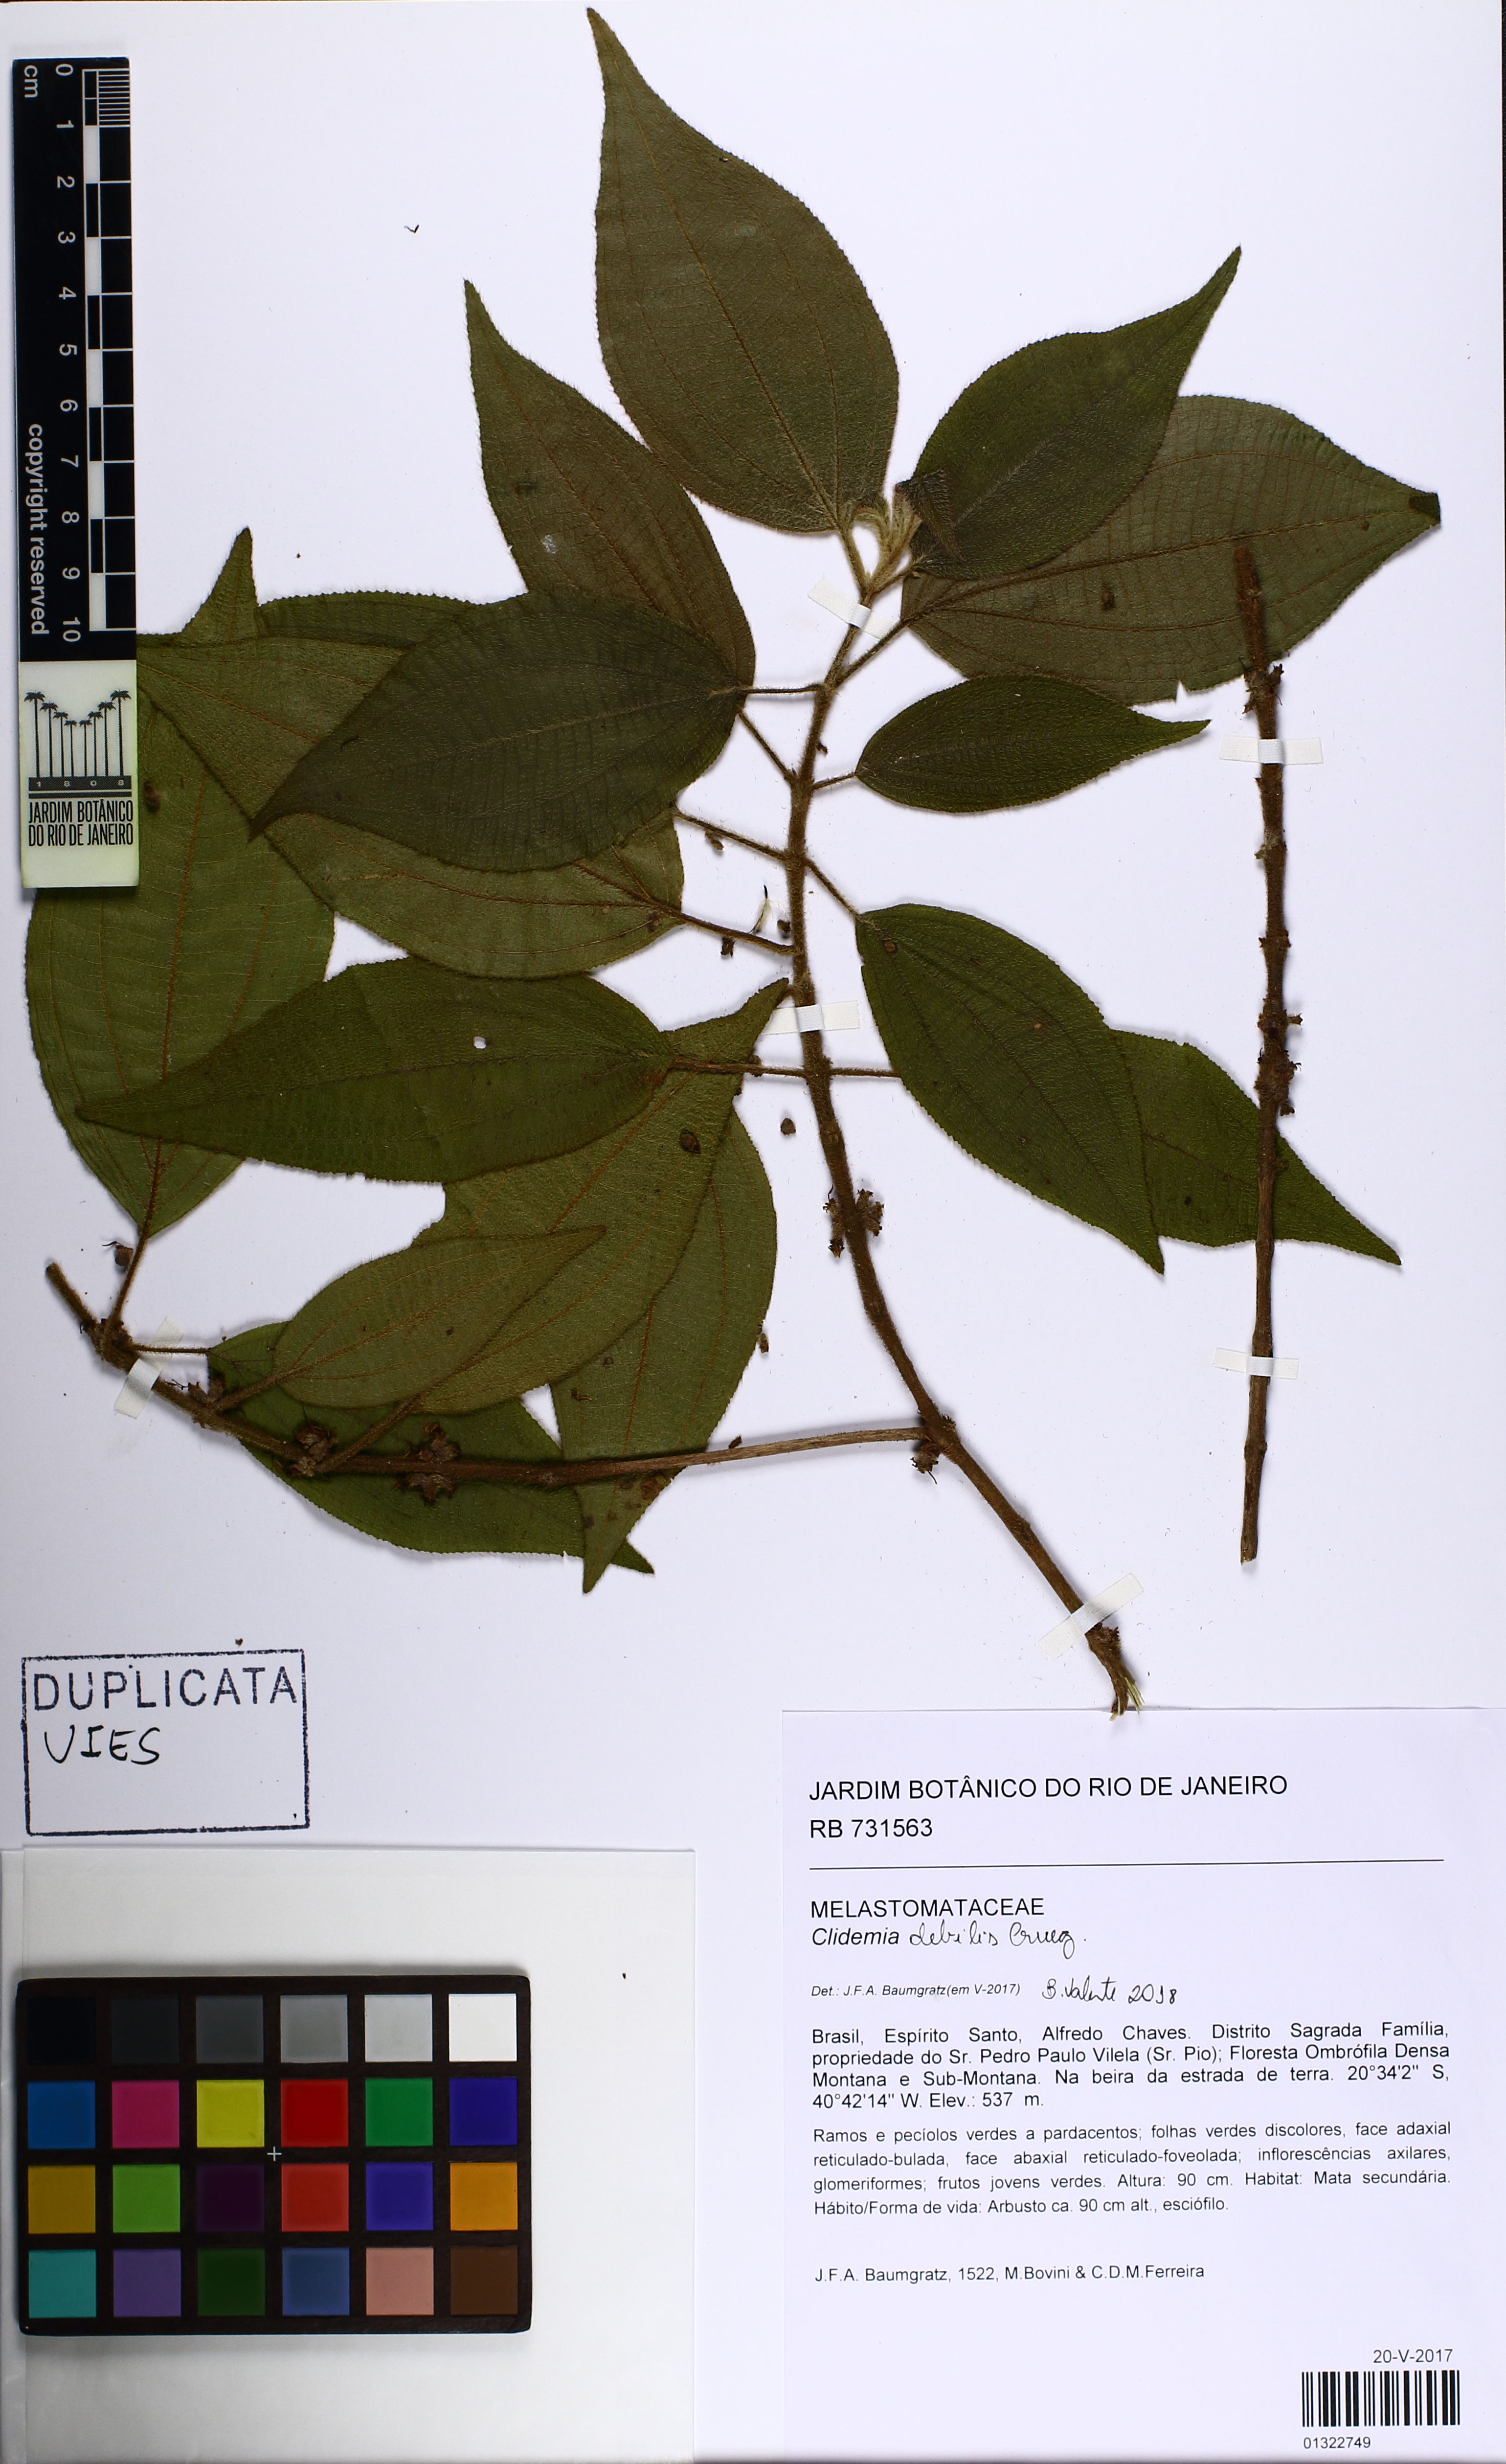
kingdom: Plantae
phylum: Tracheophyta
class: Magnoliopsida
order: Myrtales
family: Melastomataceae
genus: Miconia
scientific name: Miconia debilis
